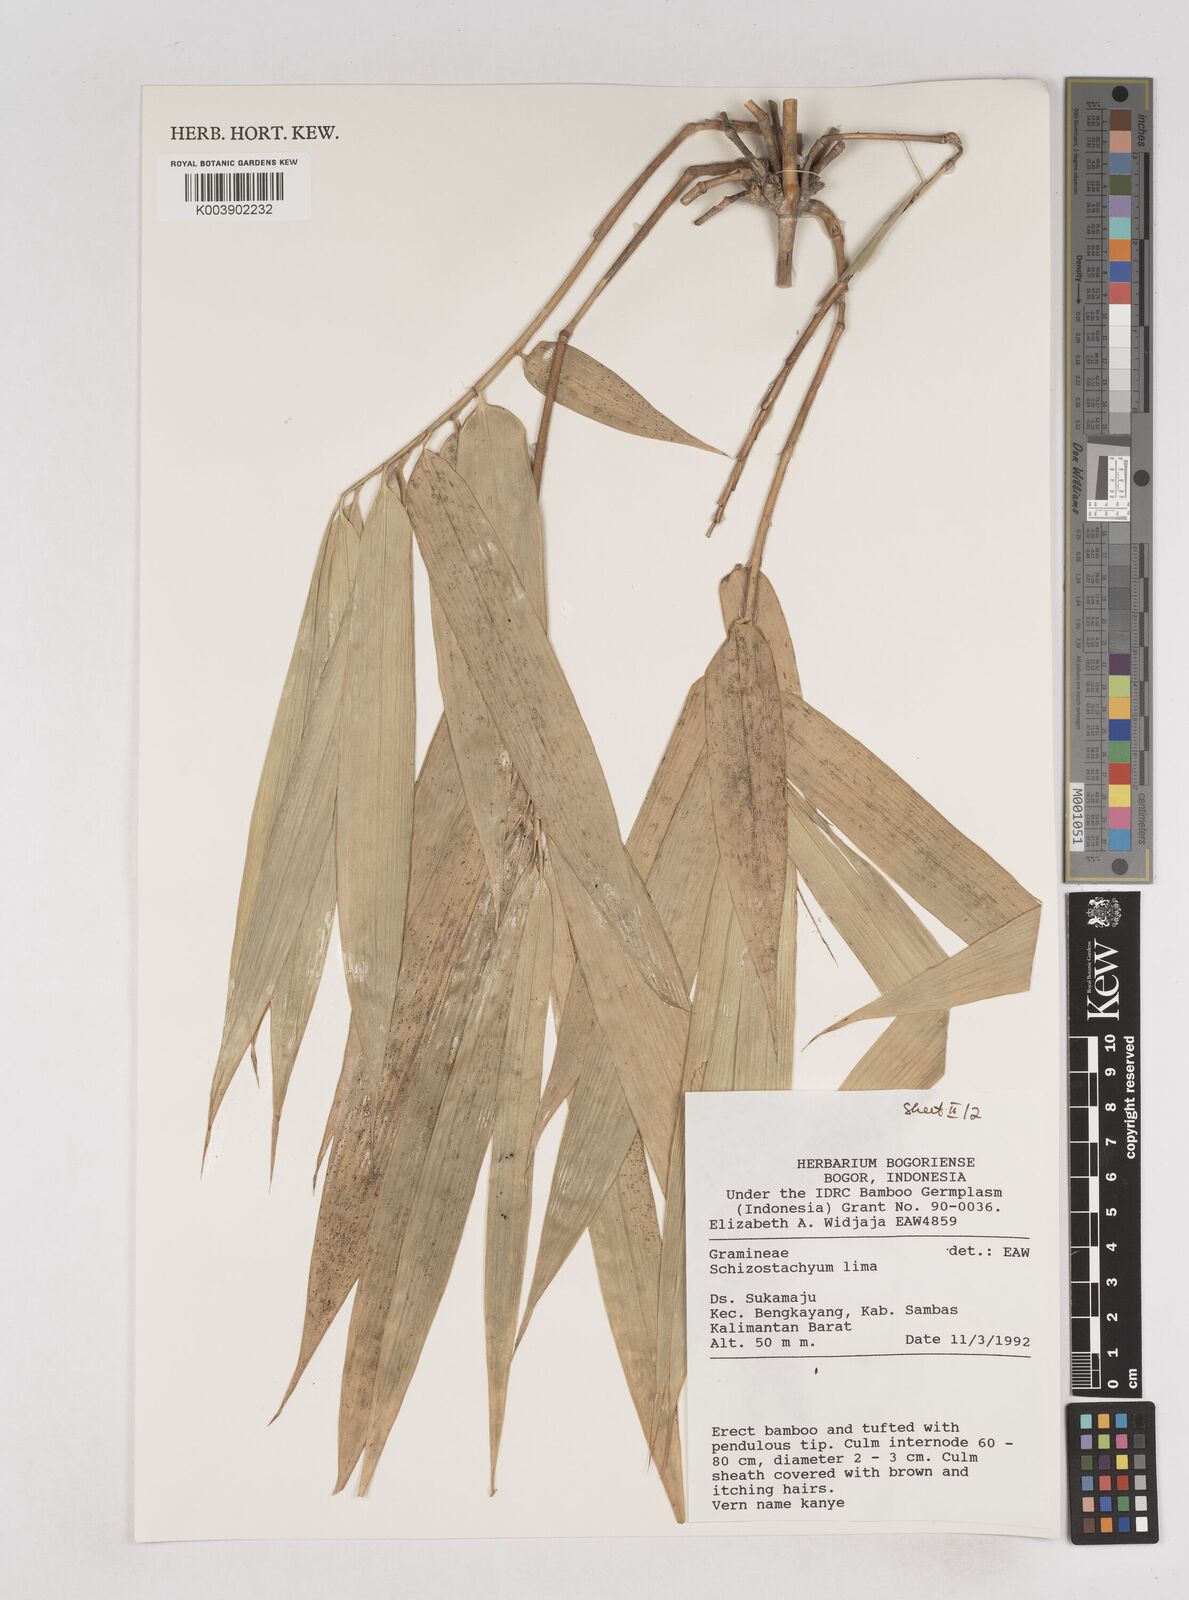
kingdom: Plantae
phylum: Tracheophyta
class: Liliopsida
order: Poales
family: Poaceae
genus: Schizostachyum
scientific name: Schizostachyum lima
